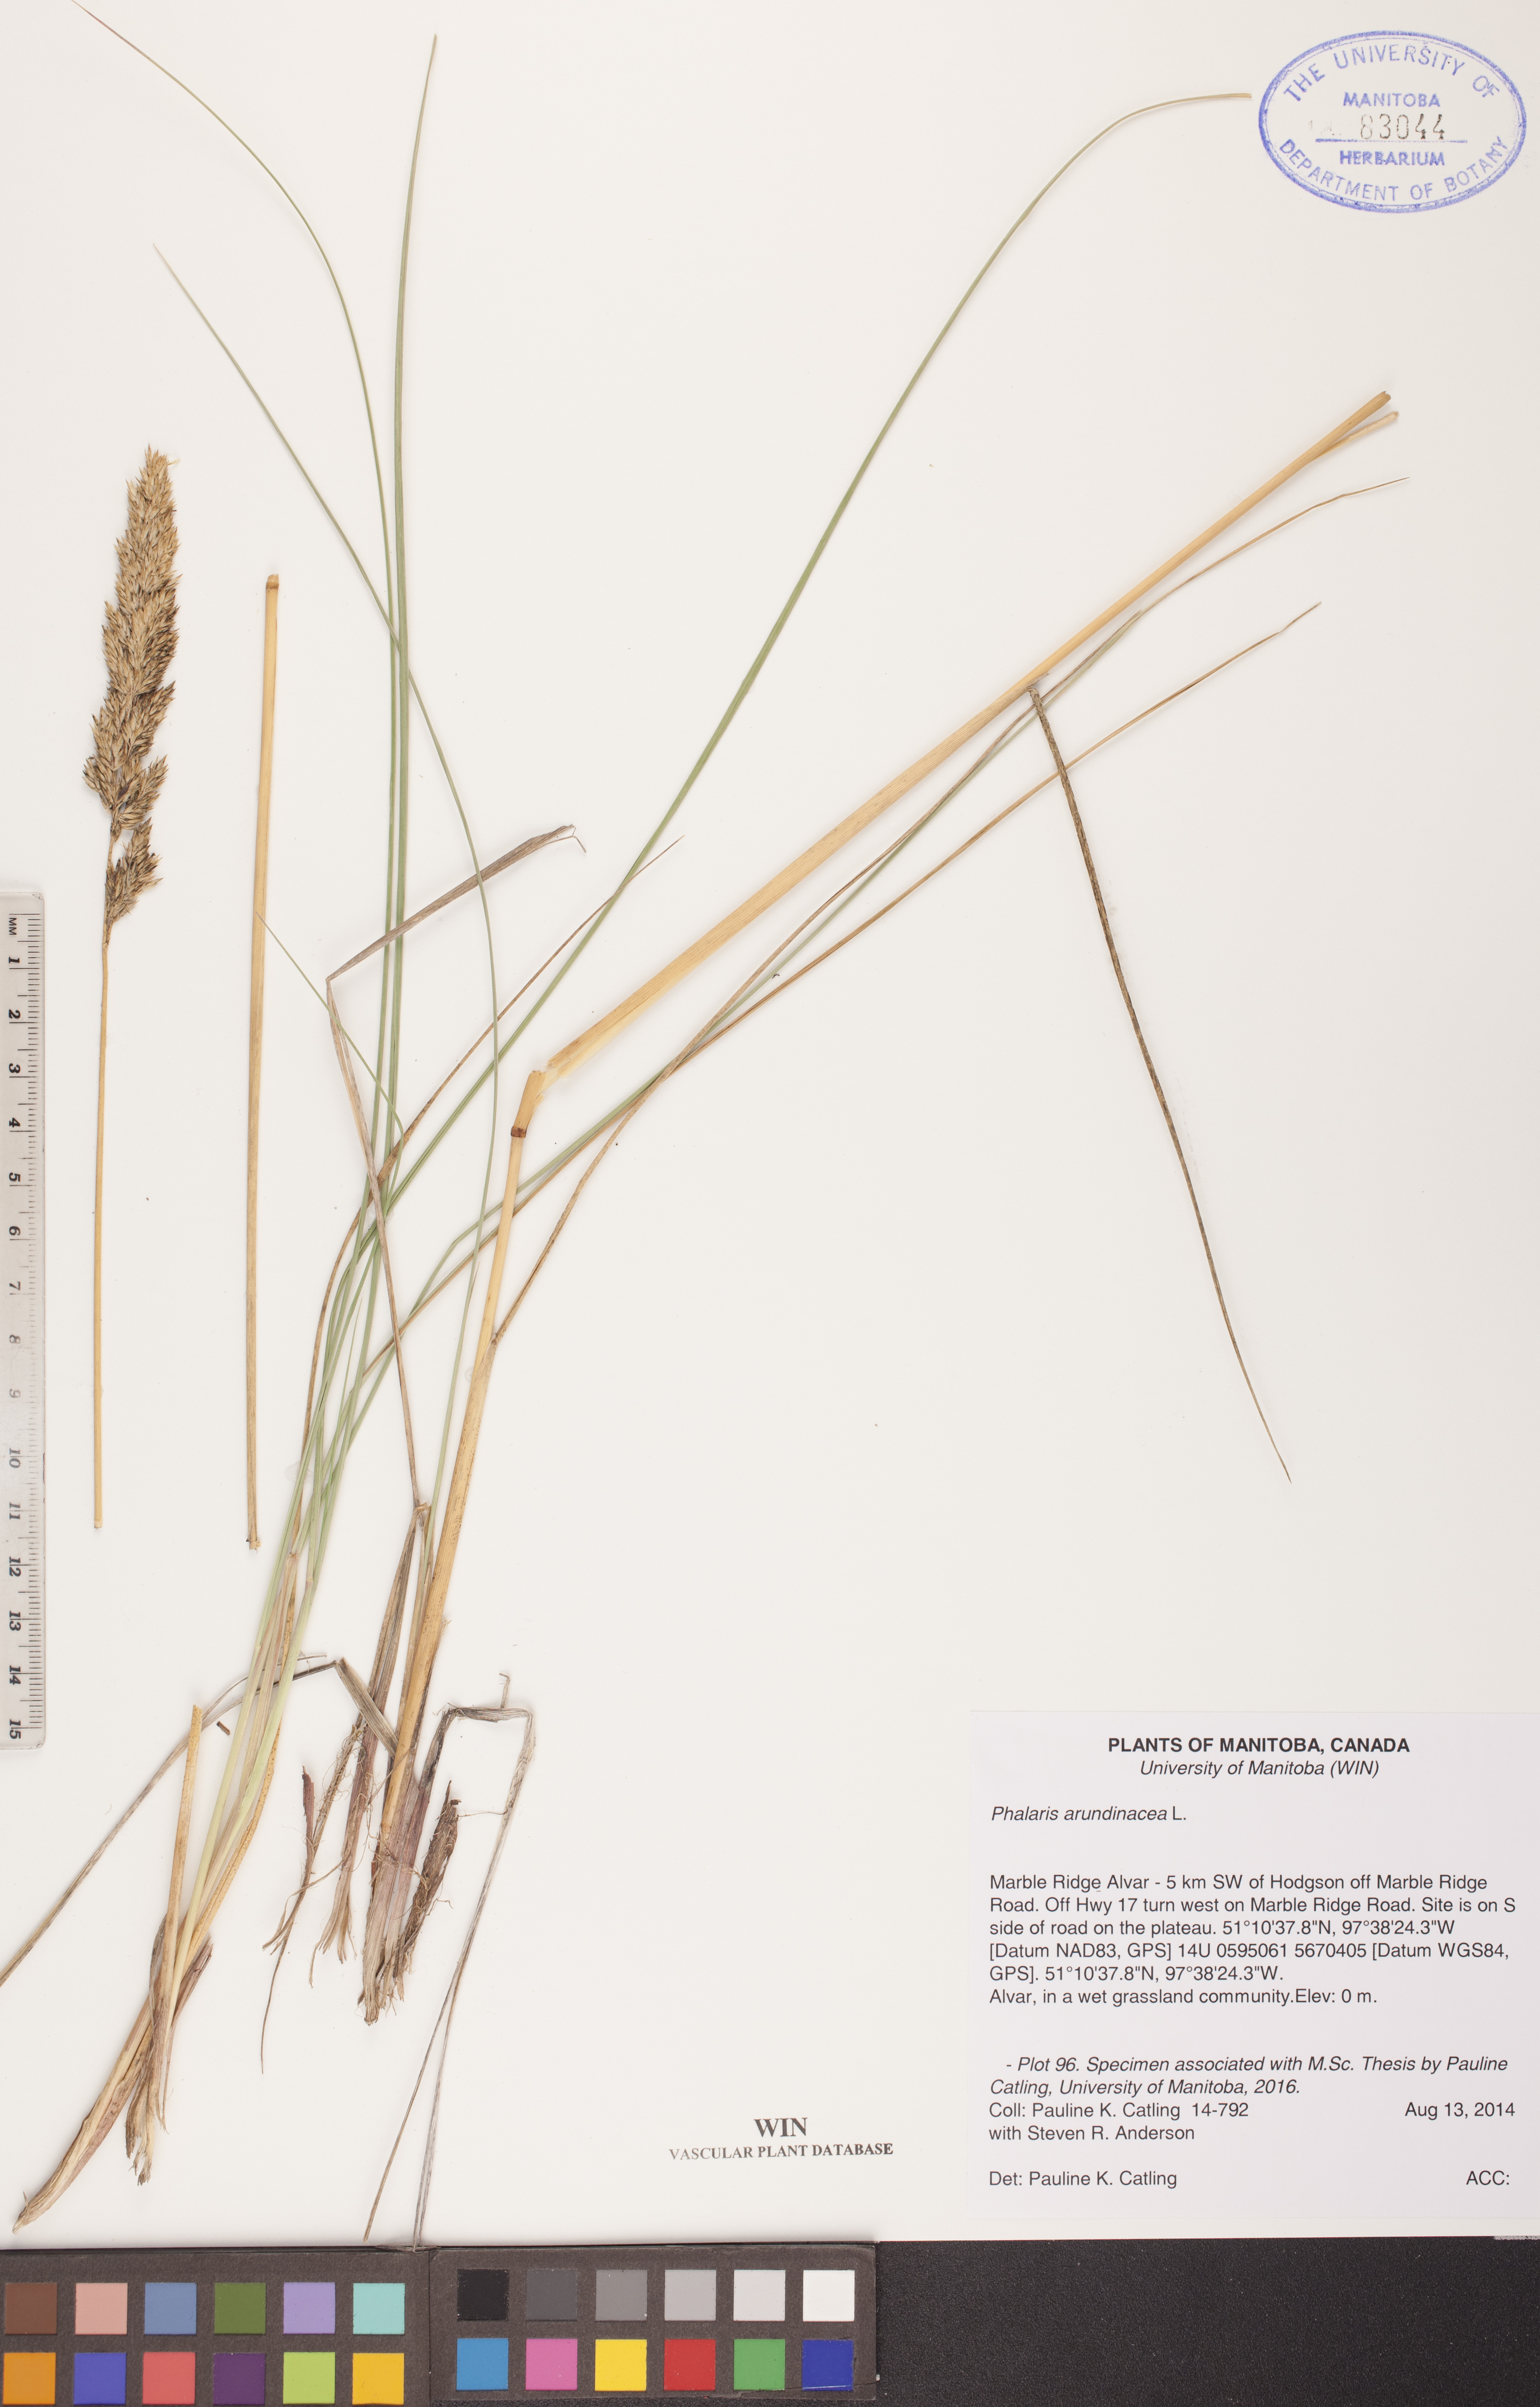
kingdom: Plantae
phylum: Tracheophyta
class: Liliopsida
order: Poales
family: Poaceae
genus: Phalaris
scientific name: Phalaris arundinacea
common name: Reed canary-grass
